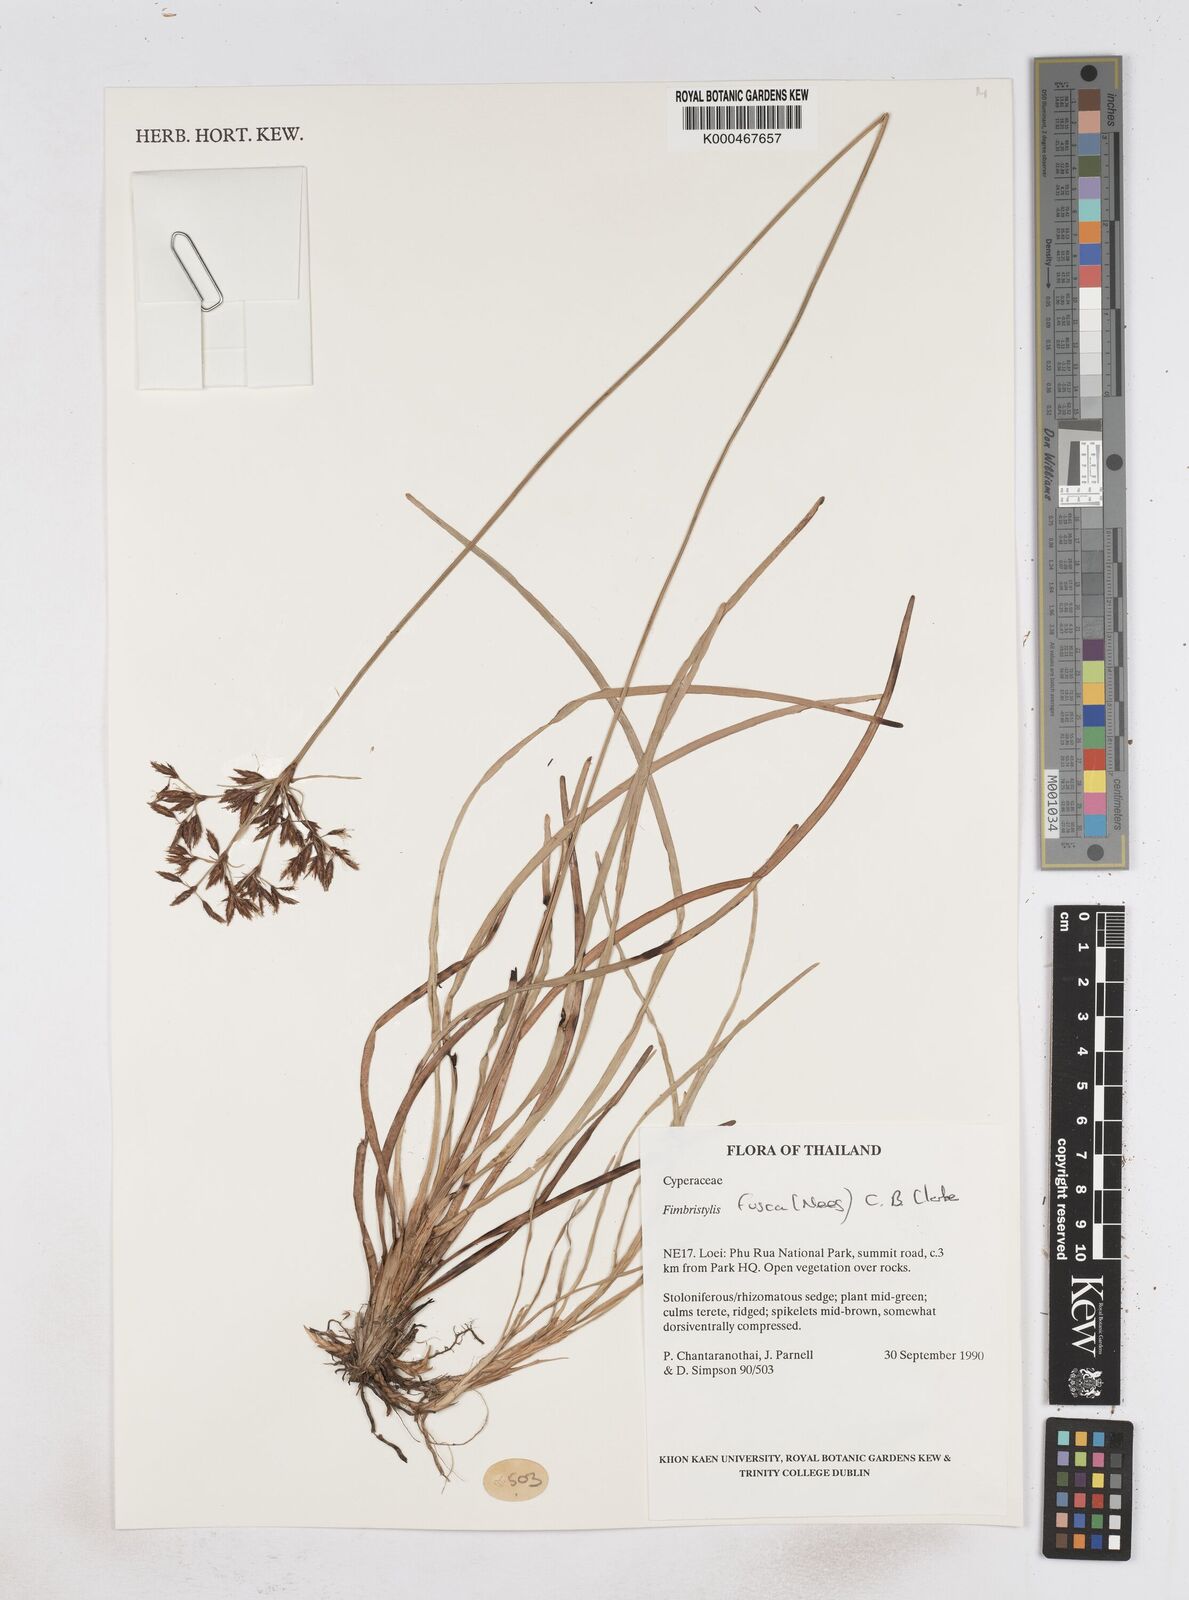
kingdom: Plantae
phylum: Tracheophyta
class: Liliopsida
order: Poales
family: Cyperaceae
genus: Fimbristylis
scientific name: Fimbristylis fusca
